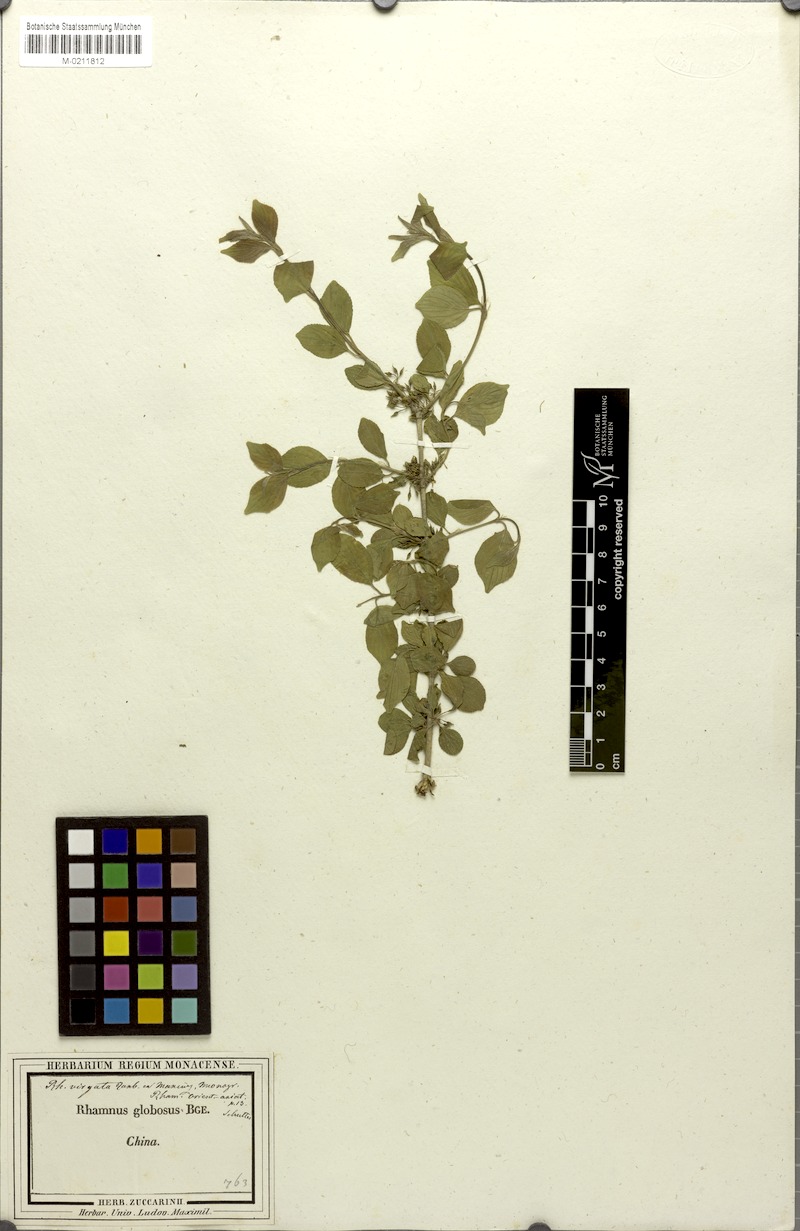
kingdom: Plantae
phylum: Tracheophyta
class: Magnoliopsida
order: Rosales
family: Rhamnaceae
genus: Rhamnus
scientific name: Rhamnus globosa
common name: Lokao
